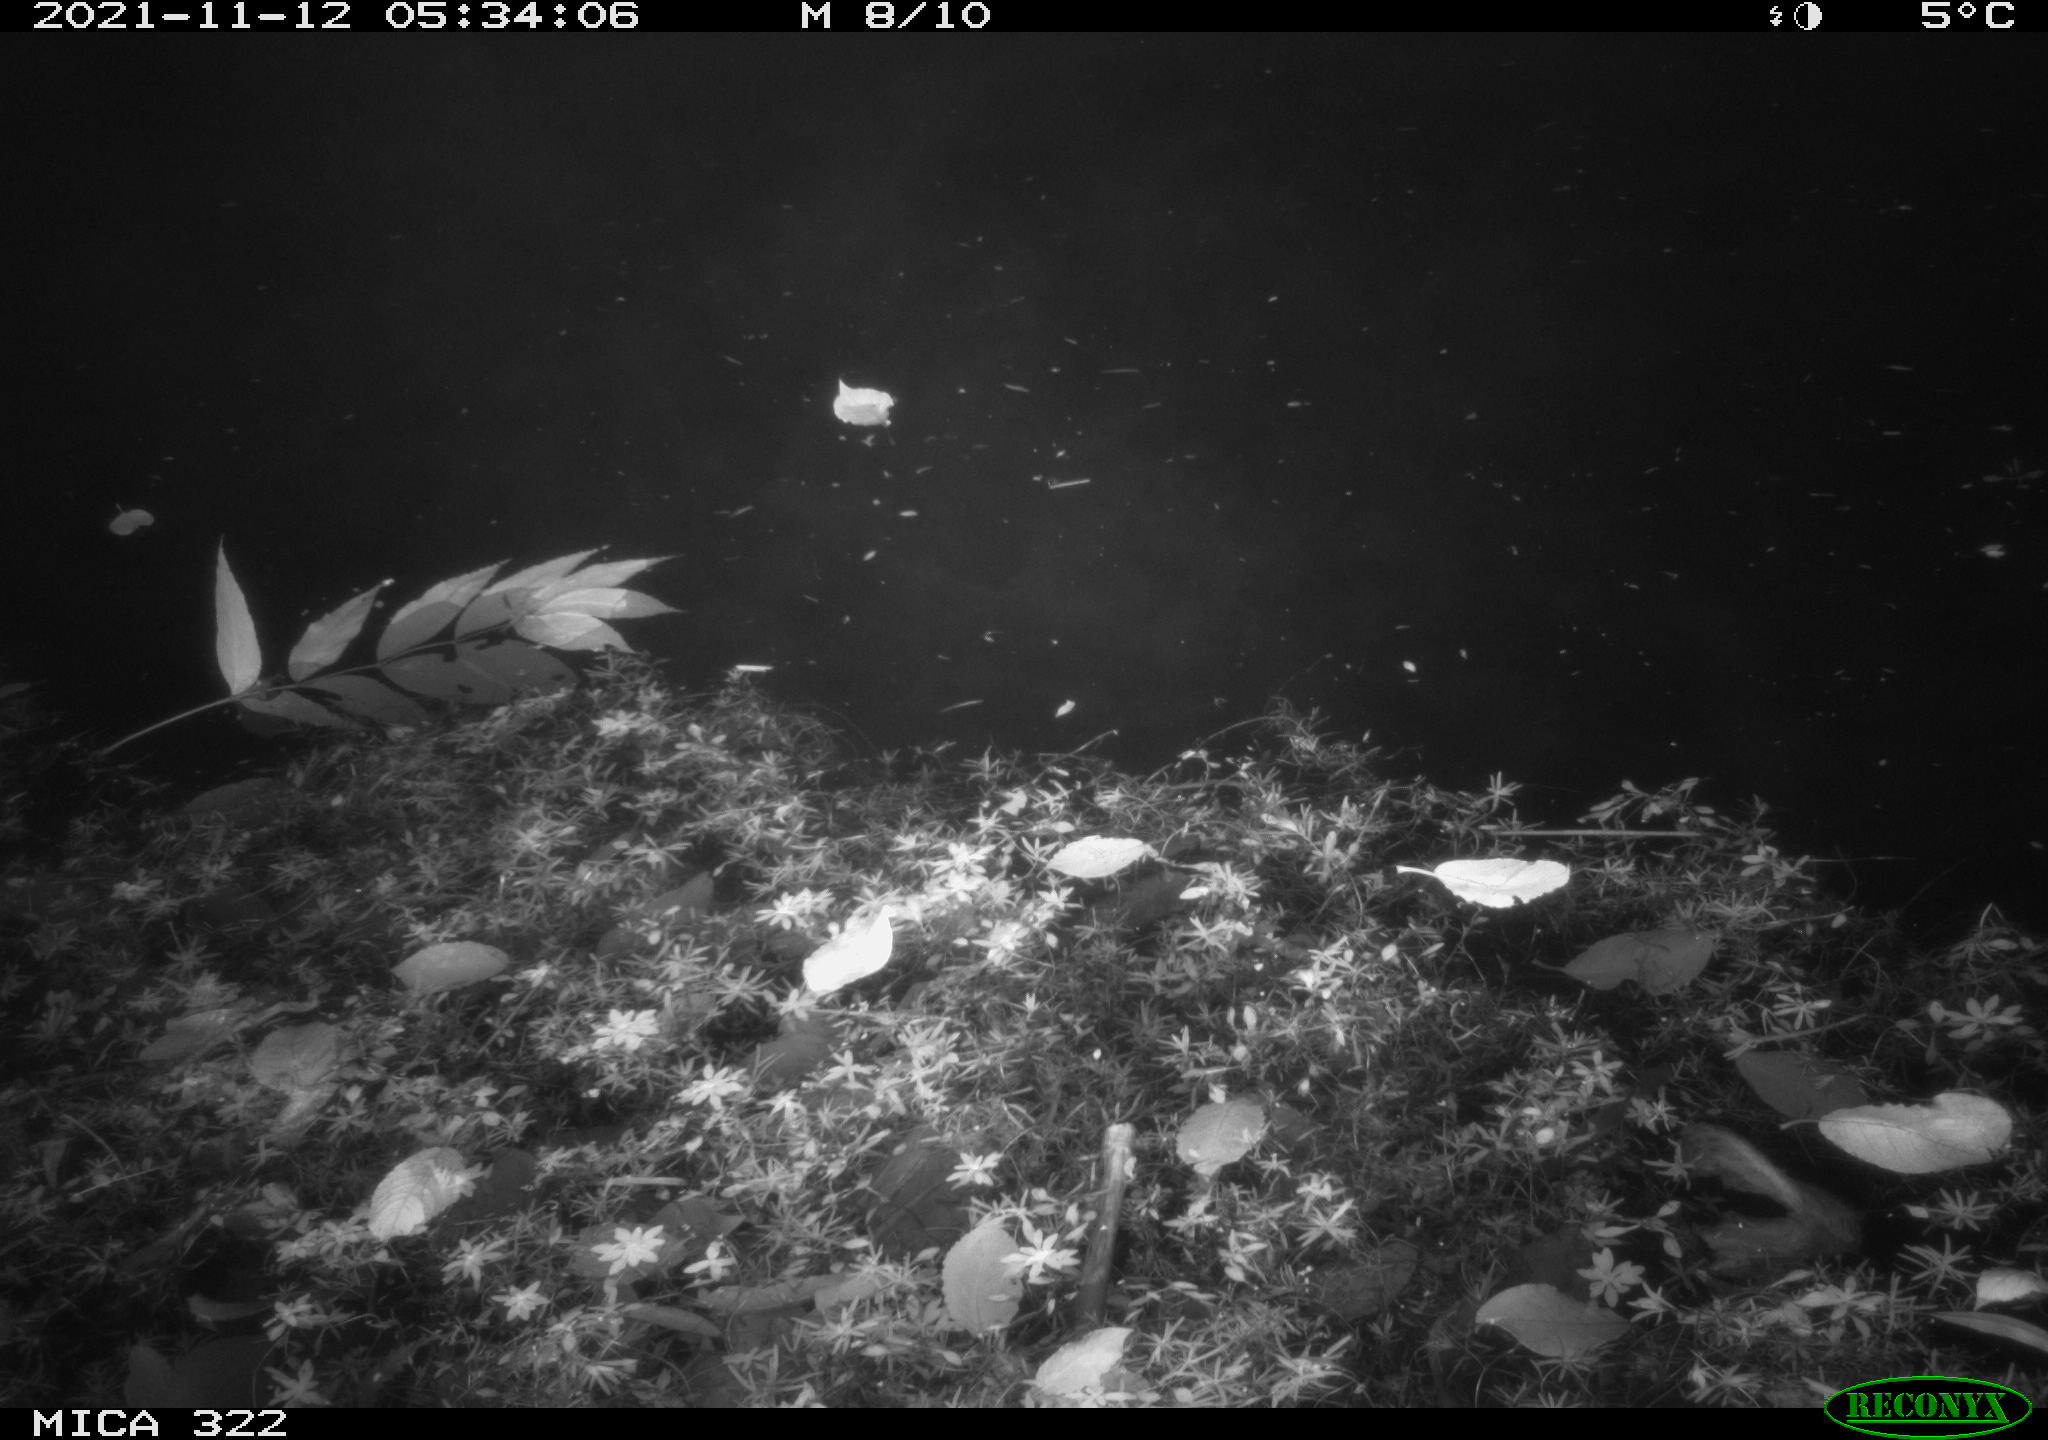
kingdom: Animalia
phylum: Chordata
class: Mammalia
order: Rodentia
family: Muridae
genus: Rattus
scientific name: Rattus norvegicus
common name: Brown rat
